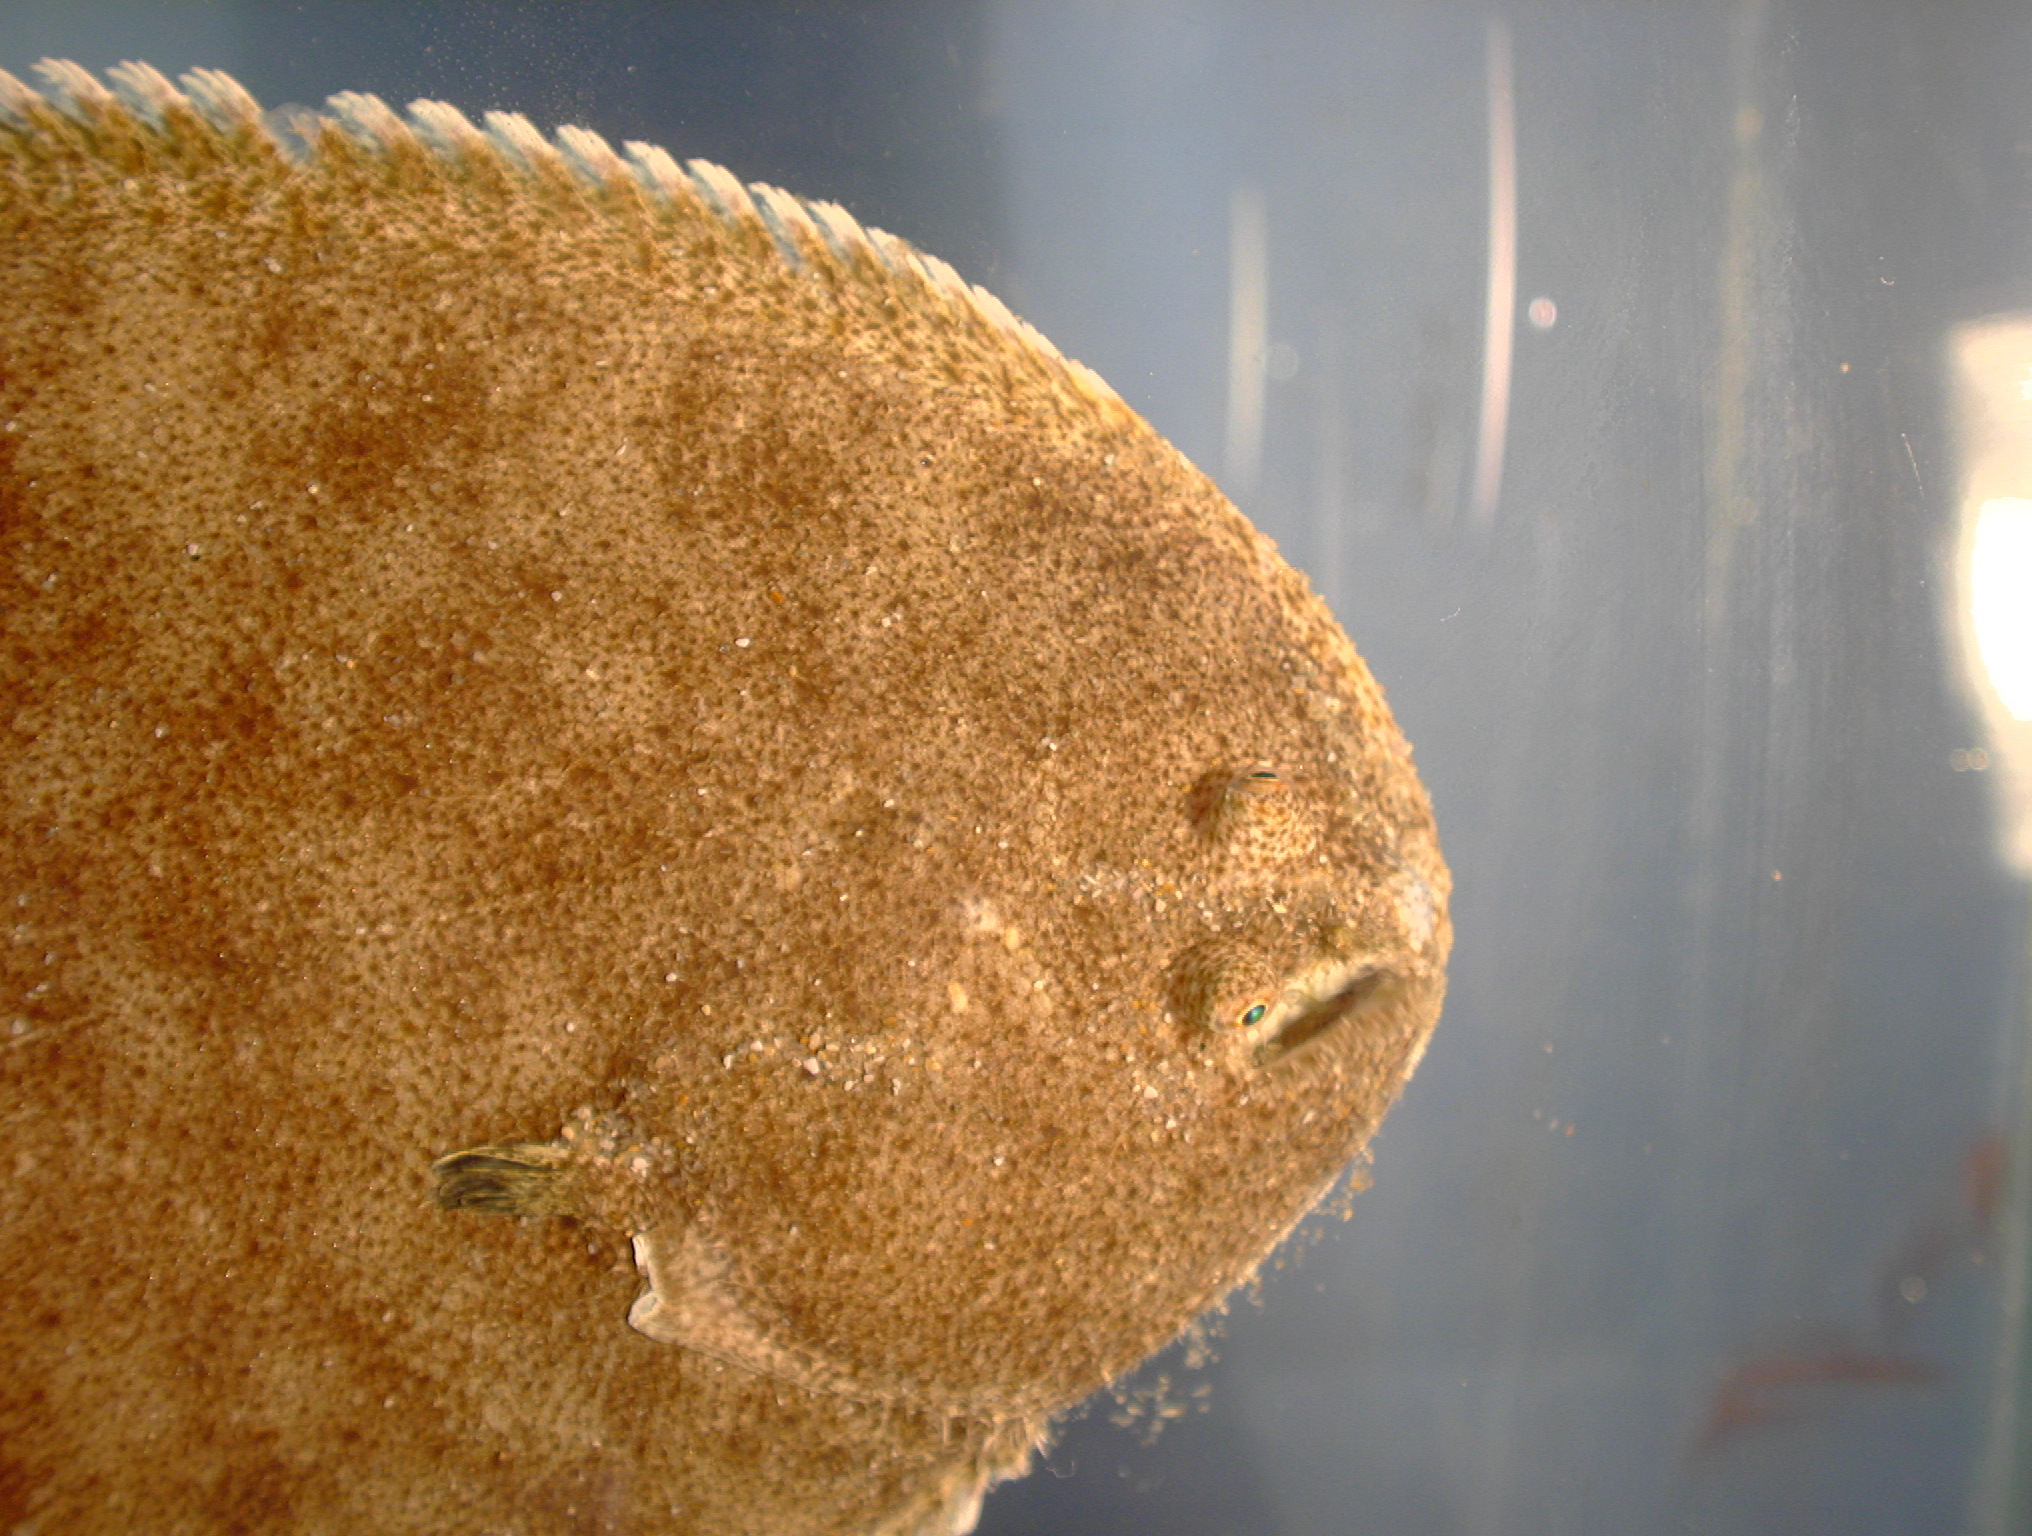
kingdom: Animalia
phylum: Chordata
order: Pleuronectiformes
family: Soleidae
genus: Synaptura
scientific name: Synaptura marginata
